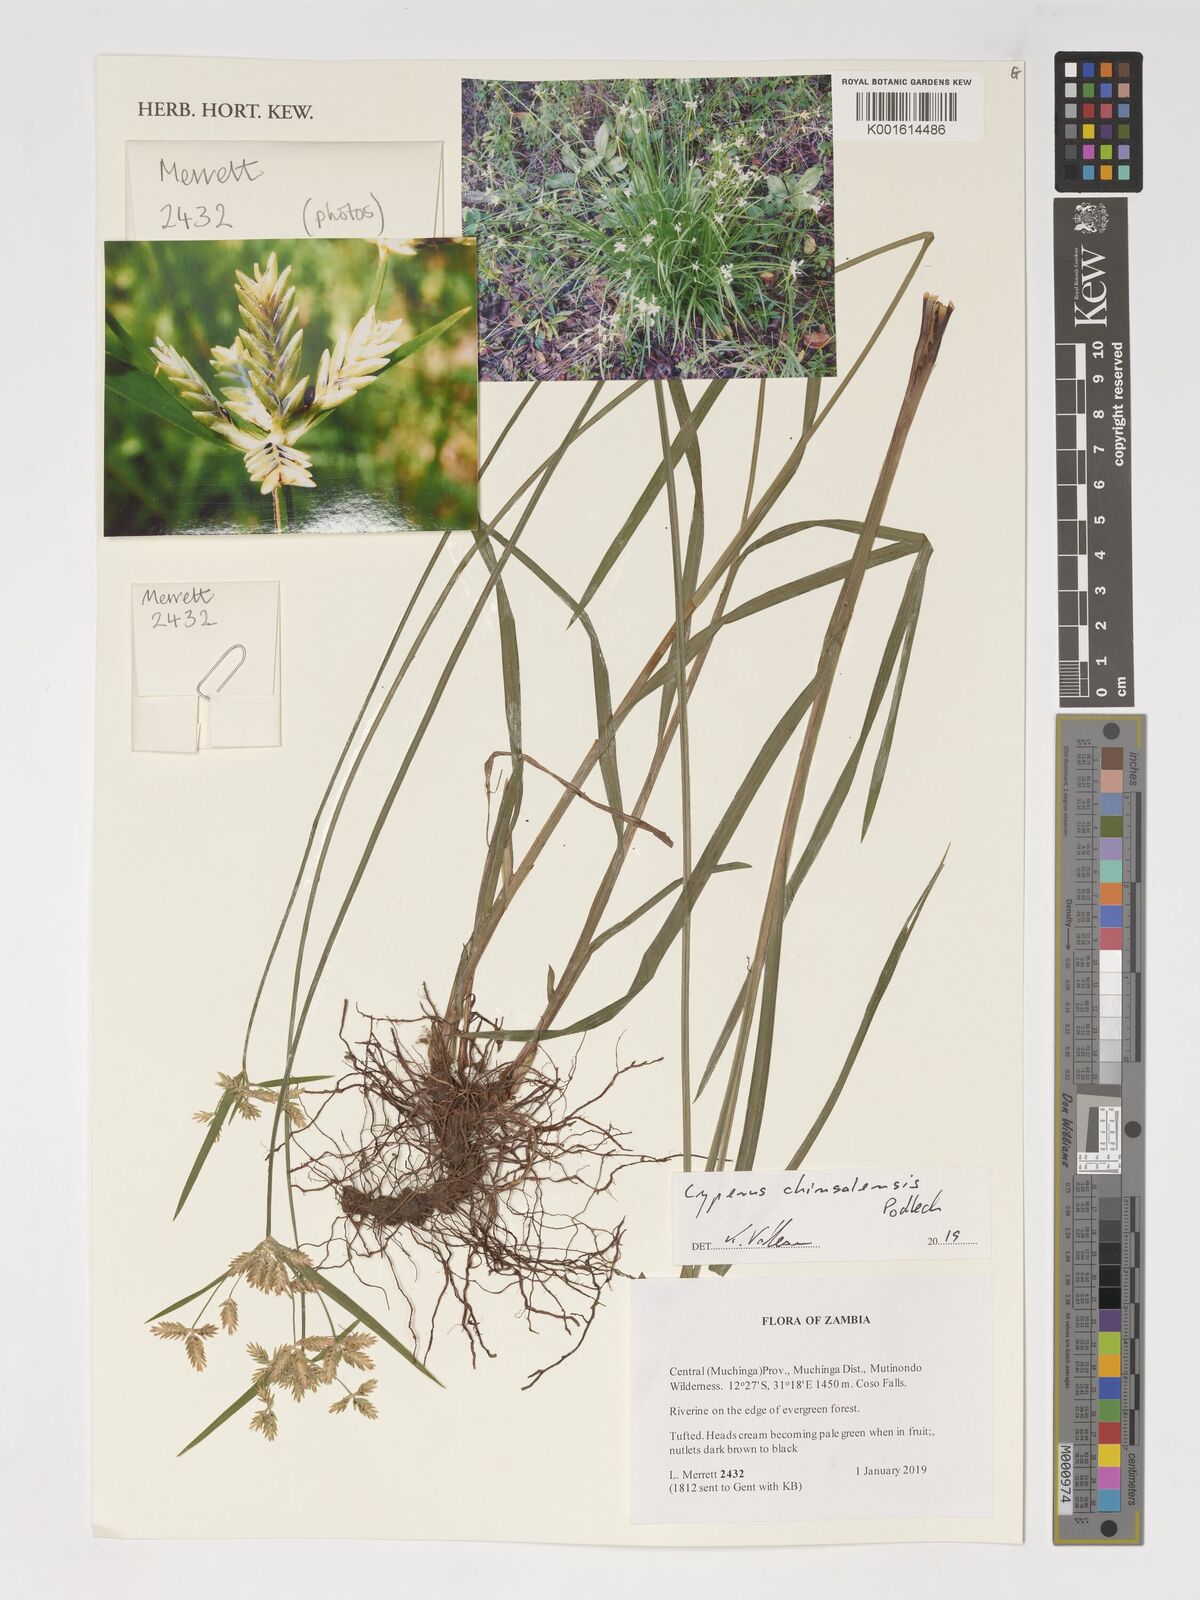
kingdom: Plantae
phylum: Tracheophyta
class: Liliopsida
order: Poales
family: Cyperaceae
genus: Cyperus
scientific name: Cyperus chinsalensis
